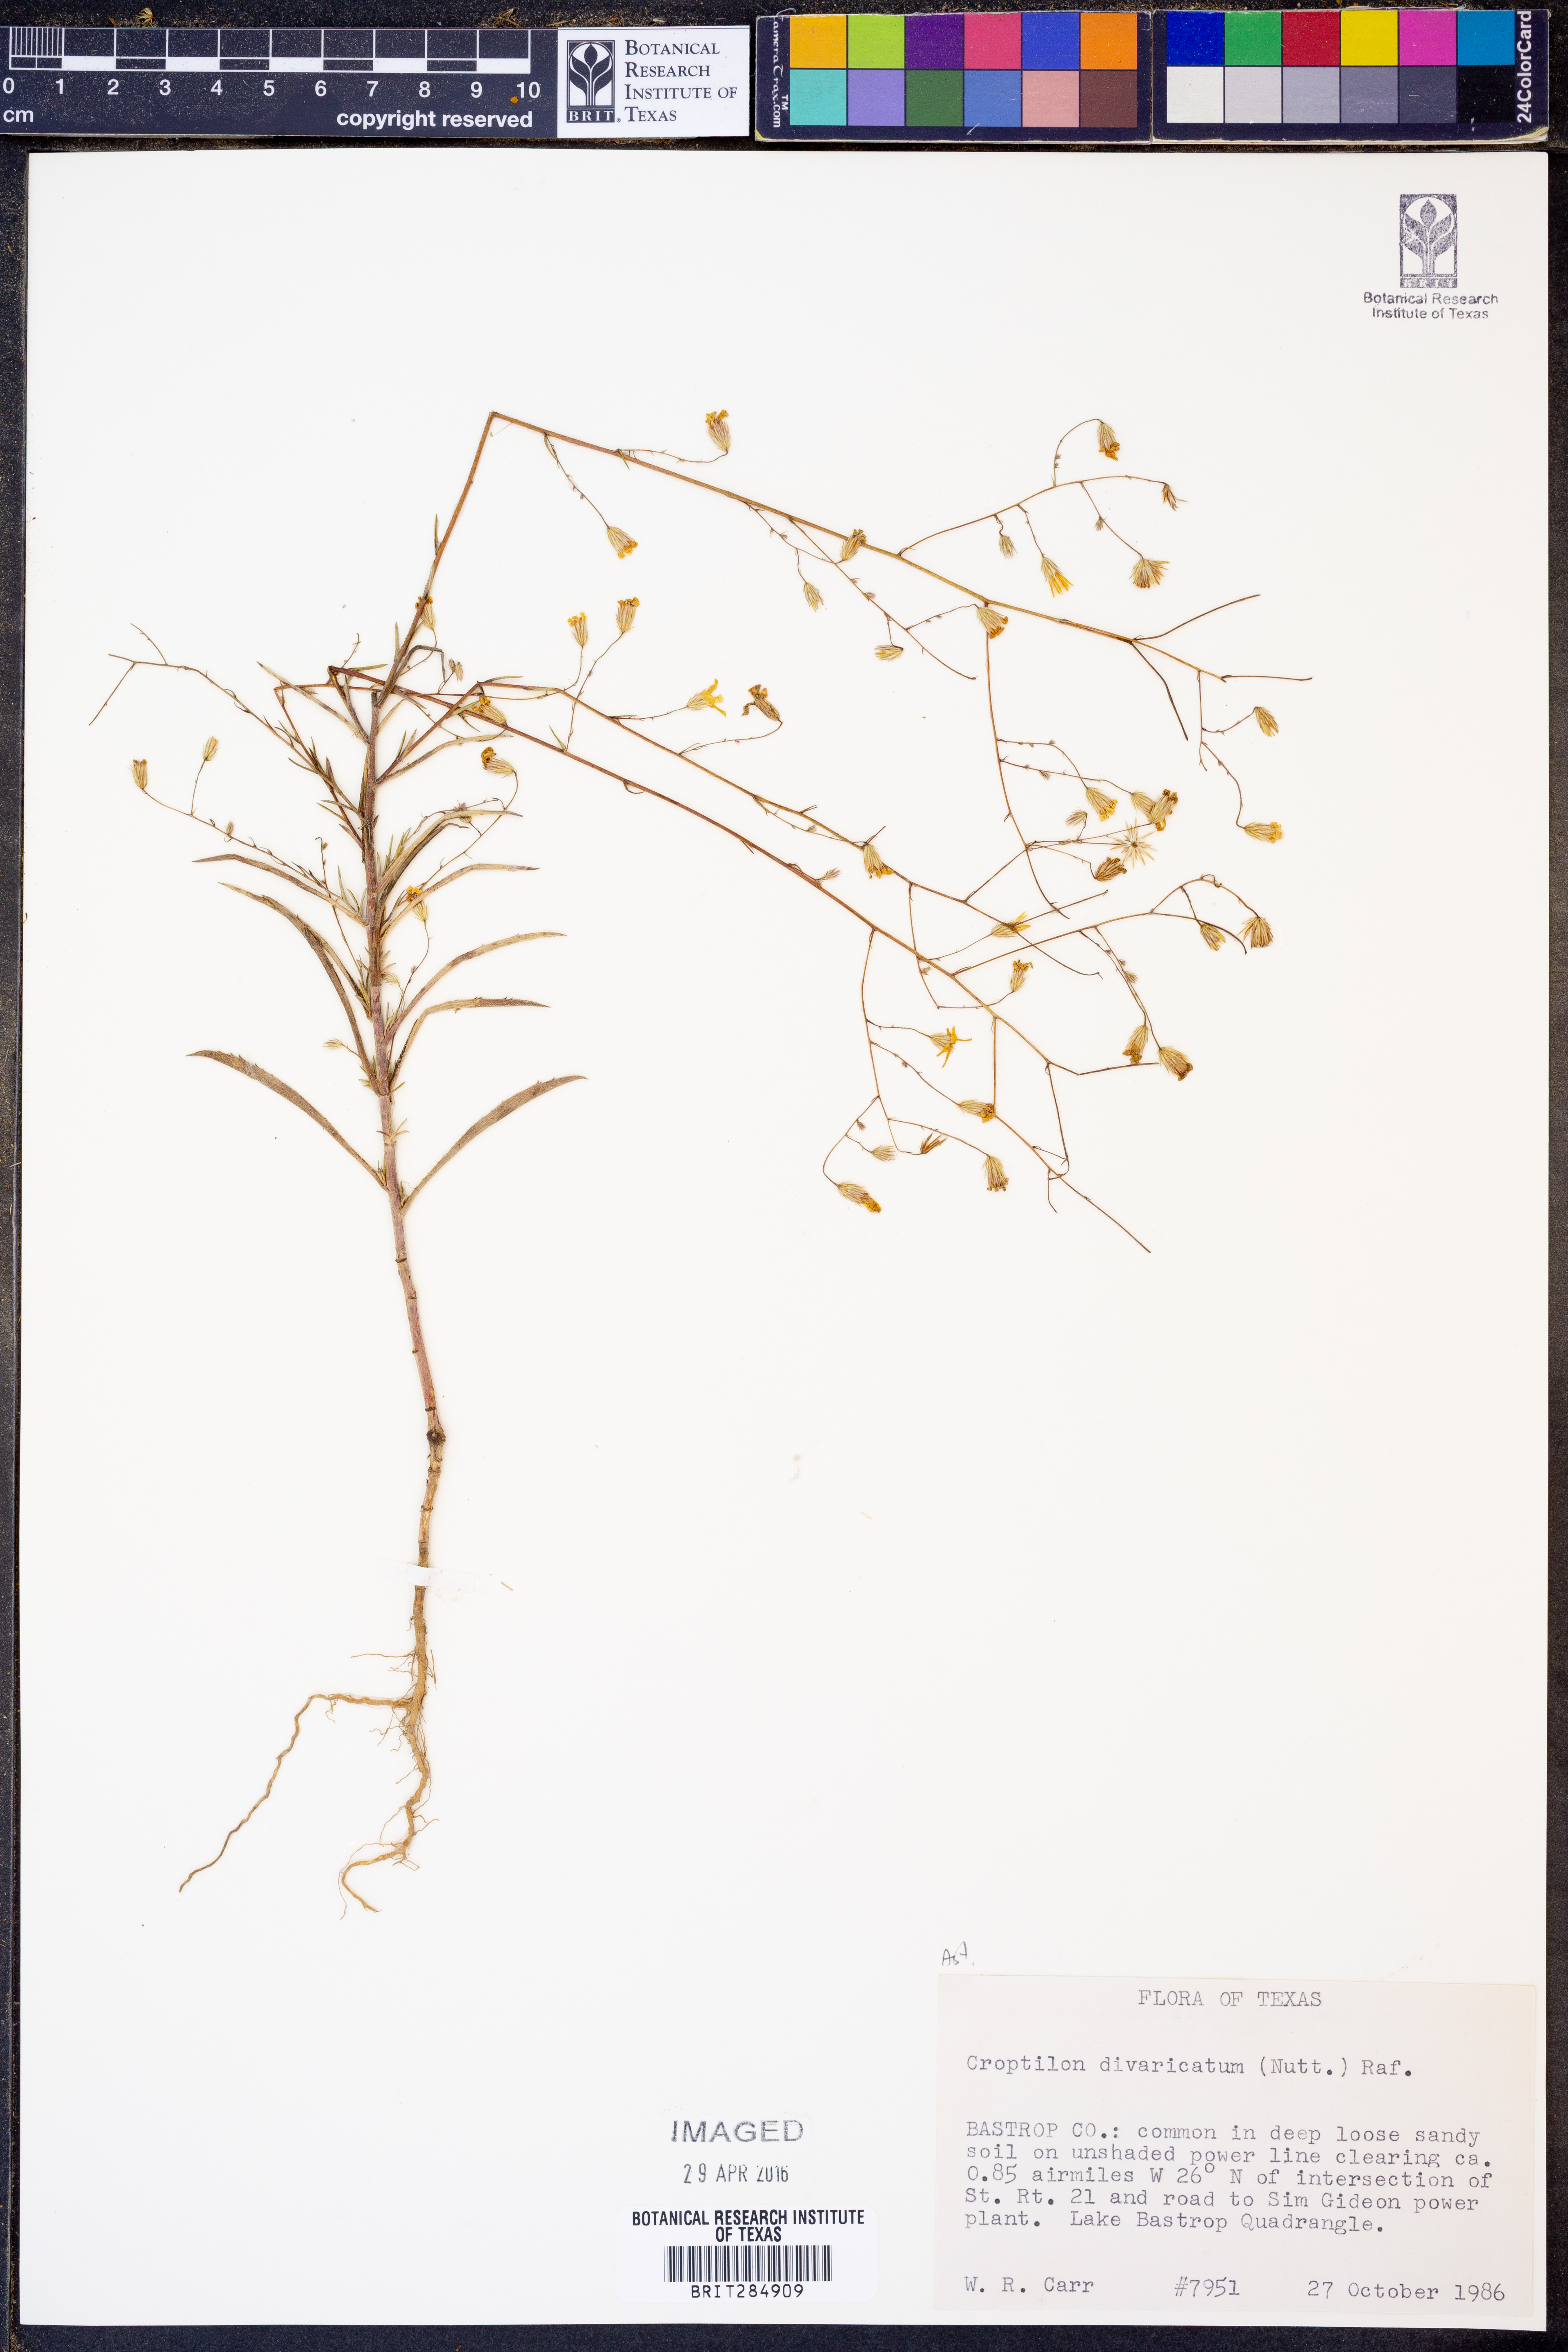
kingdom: Plantae
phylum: Tracheophyta
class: Magnoliopsida
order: Asterales
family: Asteraceae
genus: Croptilon
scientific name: Croptilon divaricatum
